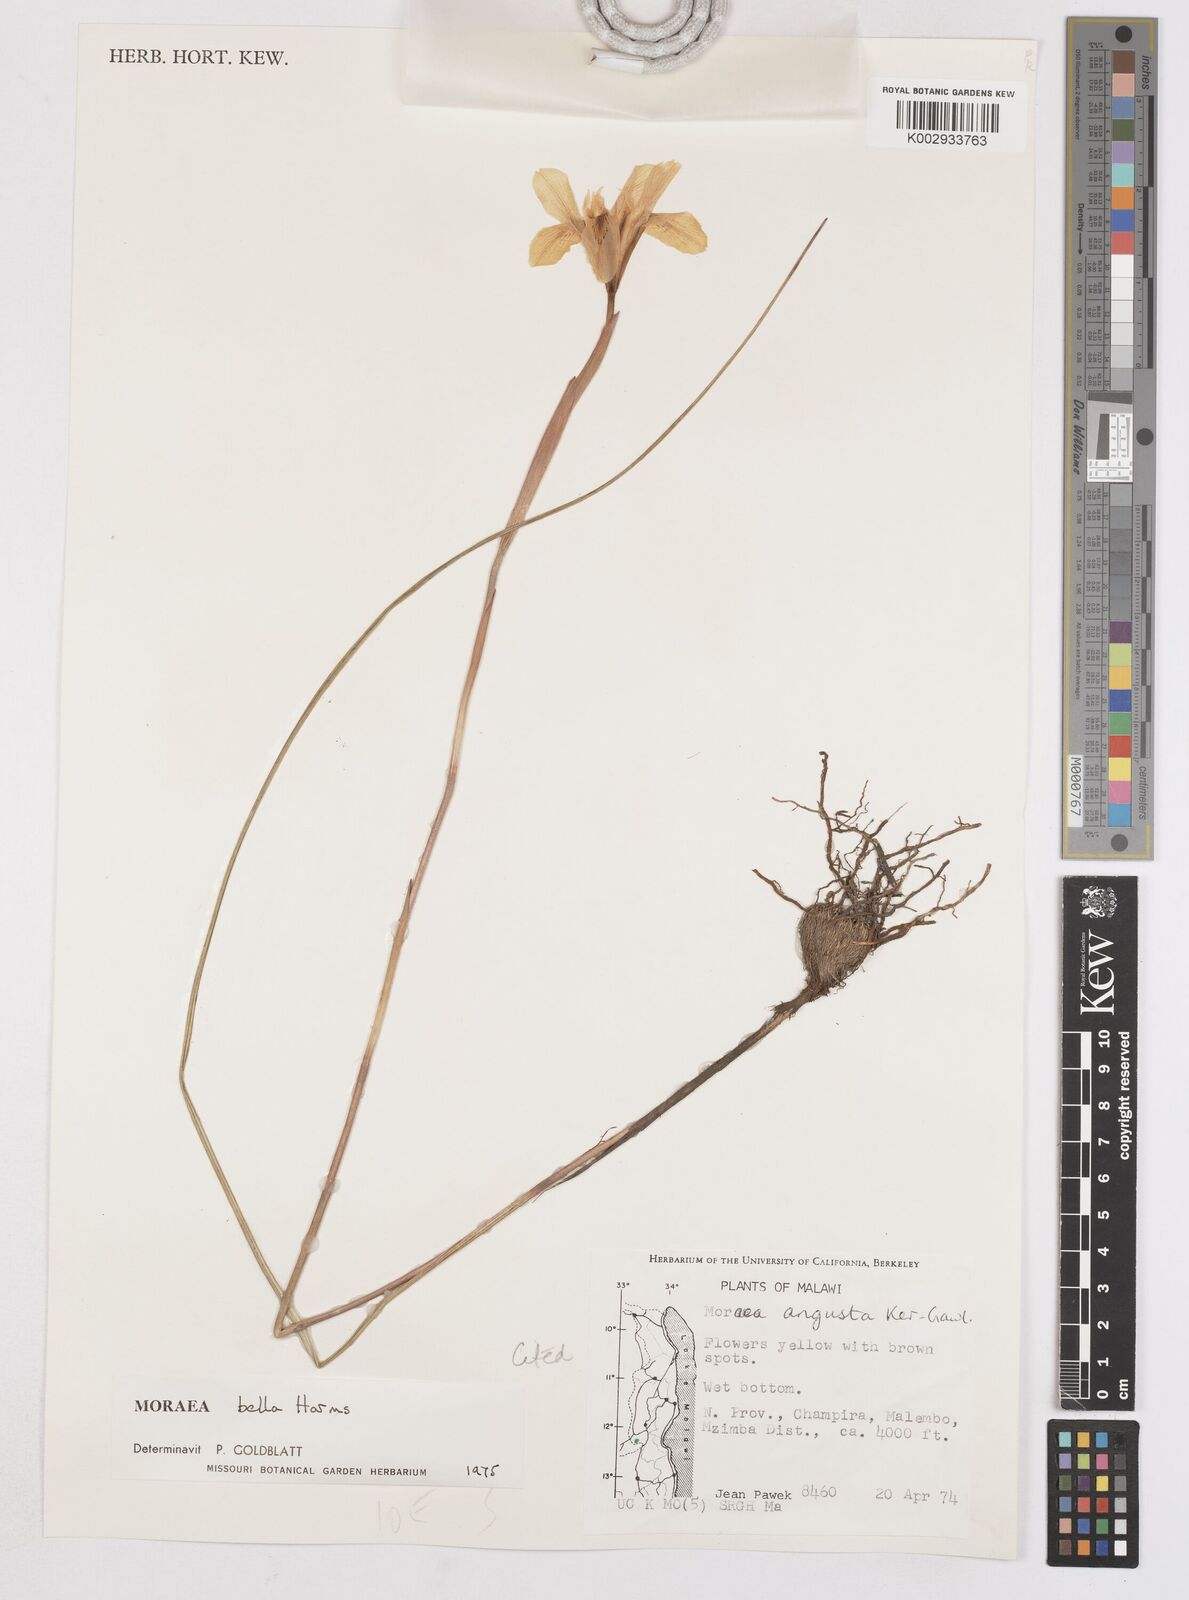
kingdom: Plantae
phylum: Tracheophyta
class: Liliopsida
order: Asparagales
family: Iridaceae
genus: Moraea
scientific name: Moraea bella
